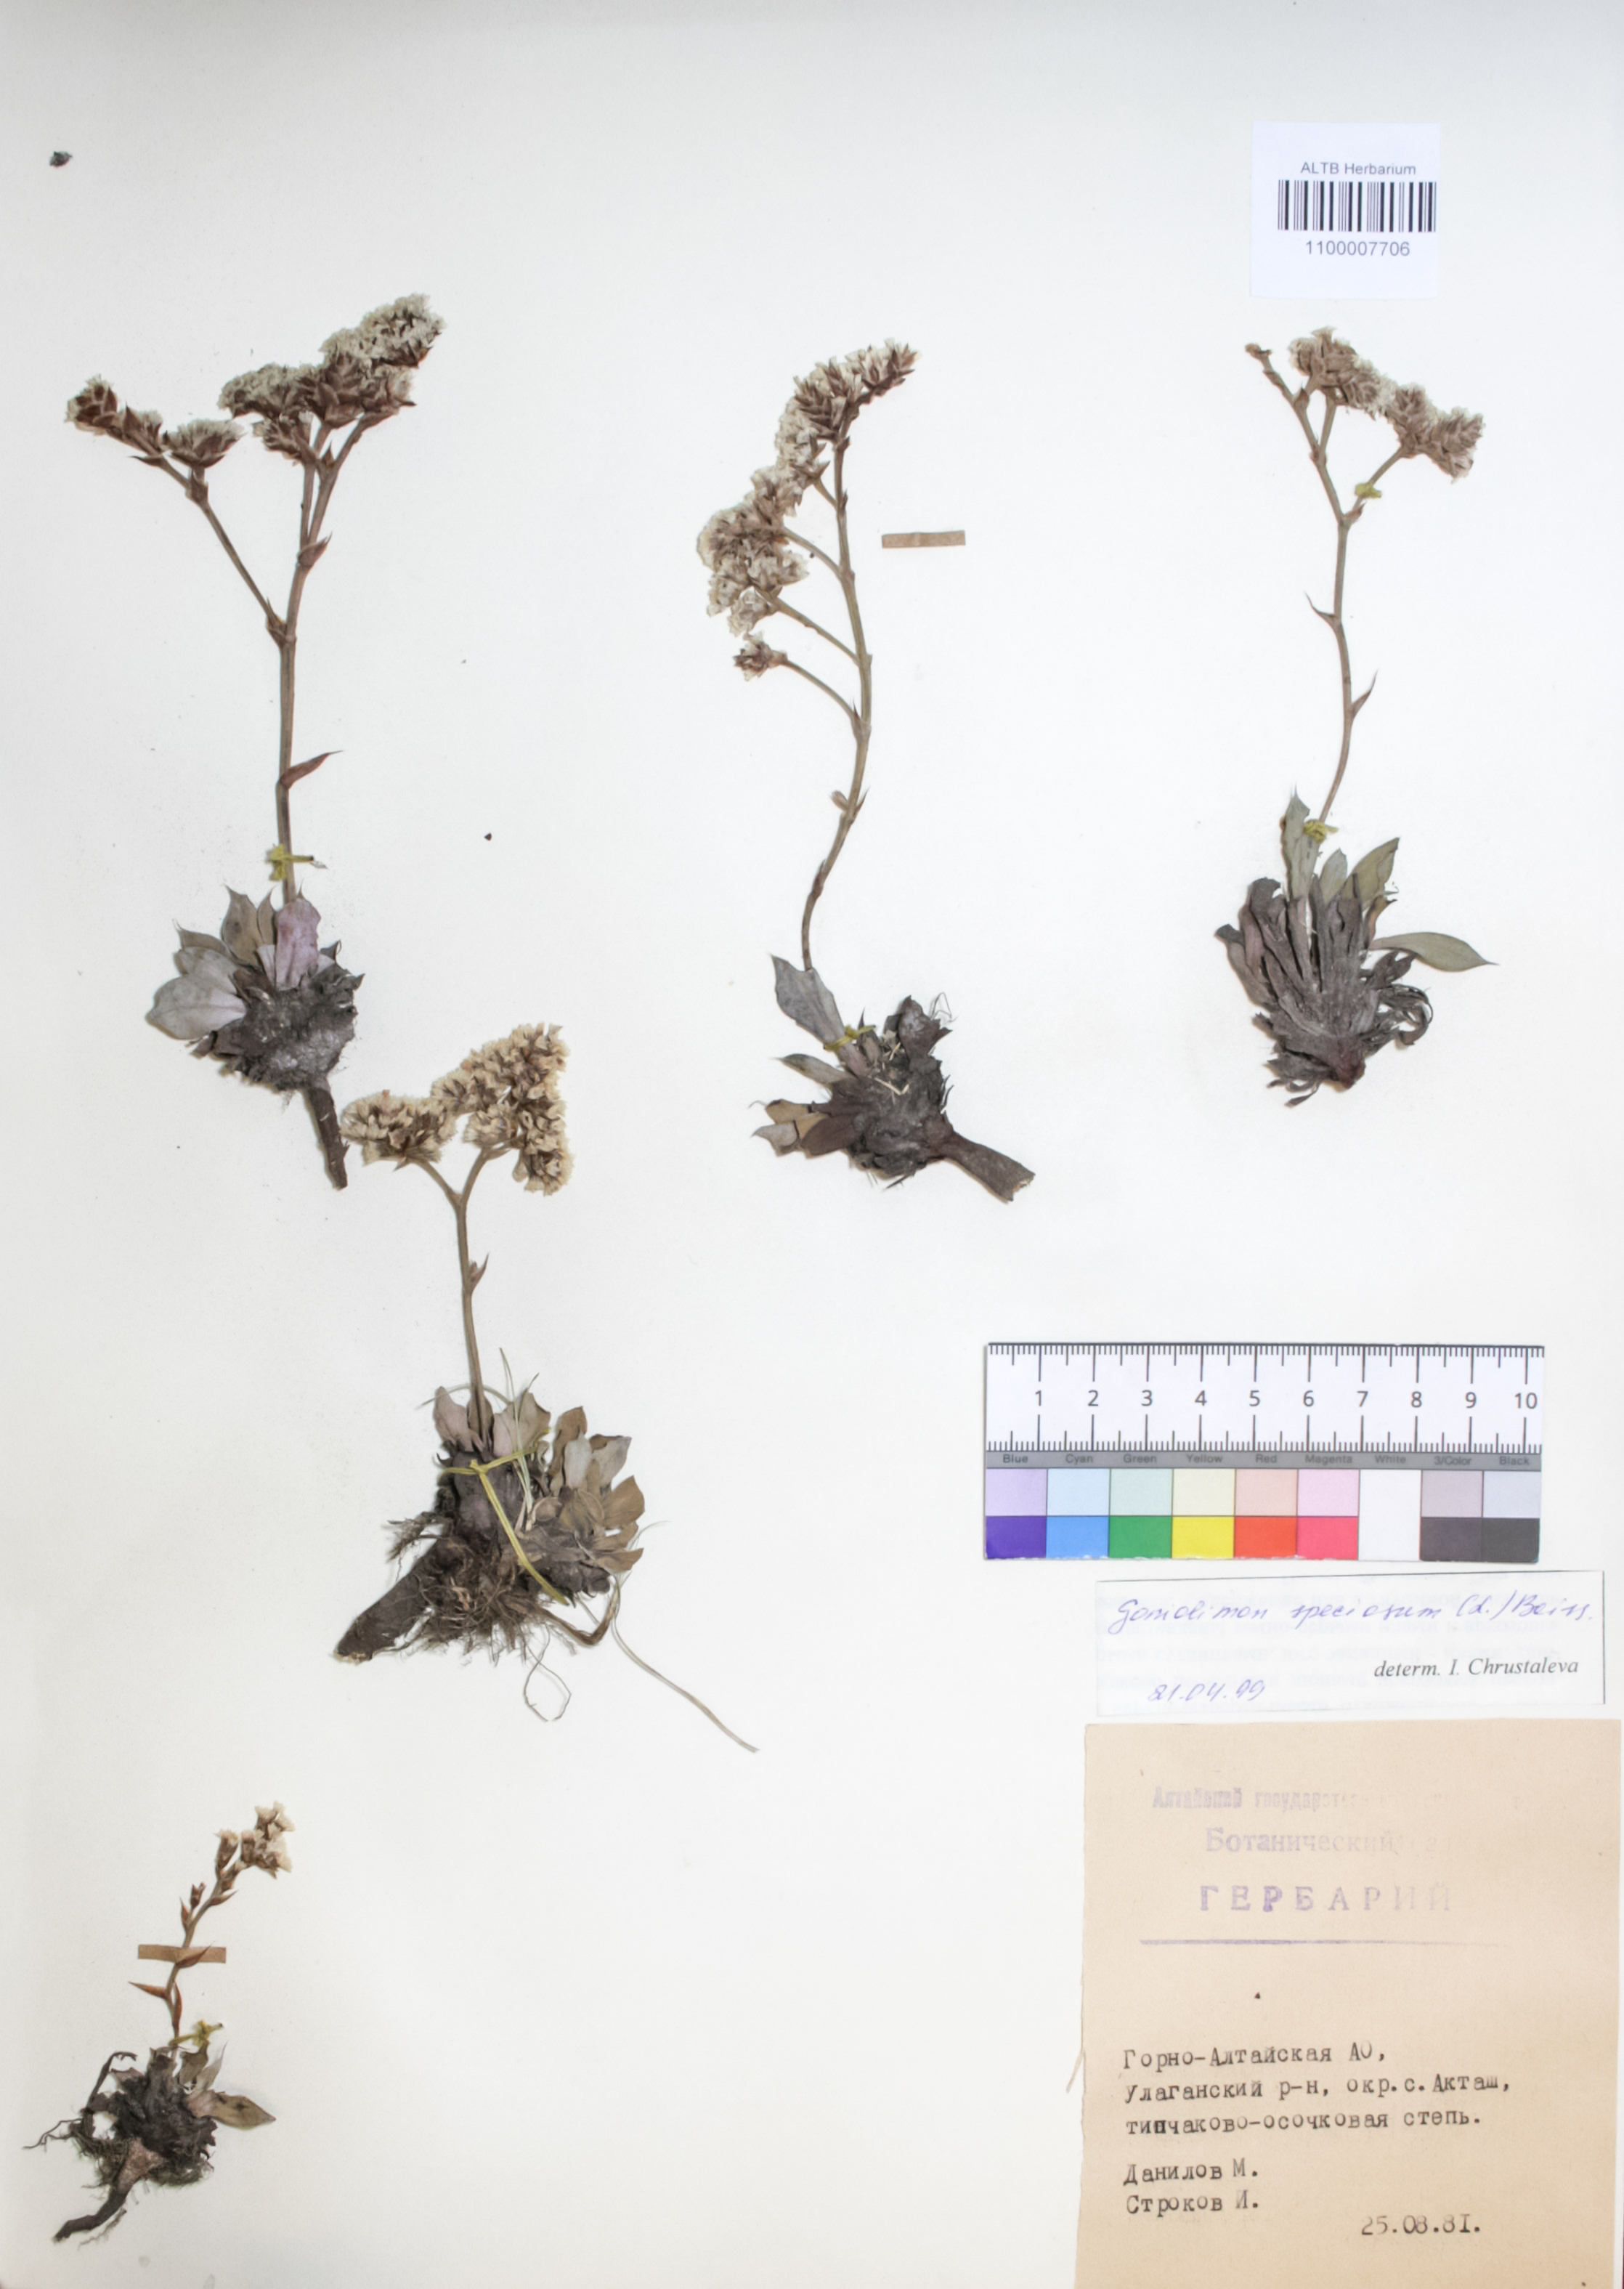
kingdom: Plantae
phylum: Tracheophyta
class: Magnoliopsida
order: Caryophyllales
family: Plumbaginaceae
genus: Goniolimon
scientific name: Goniolimon speciosum
